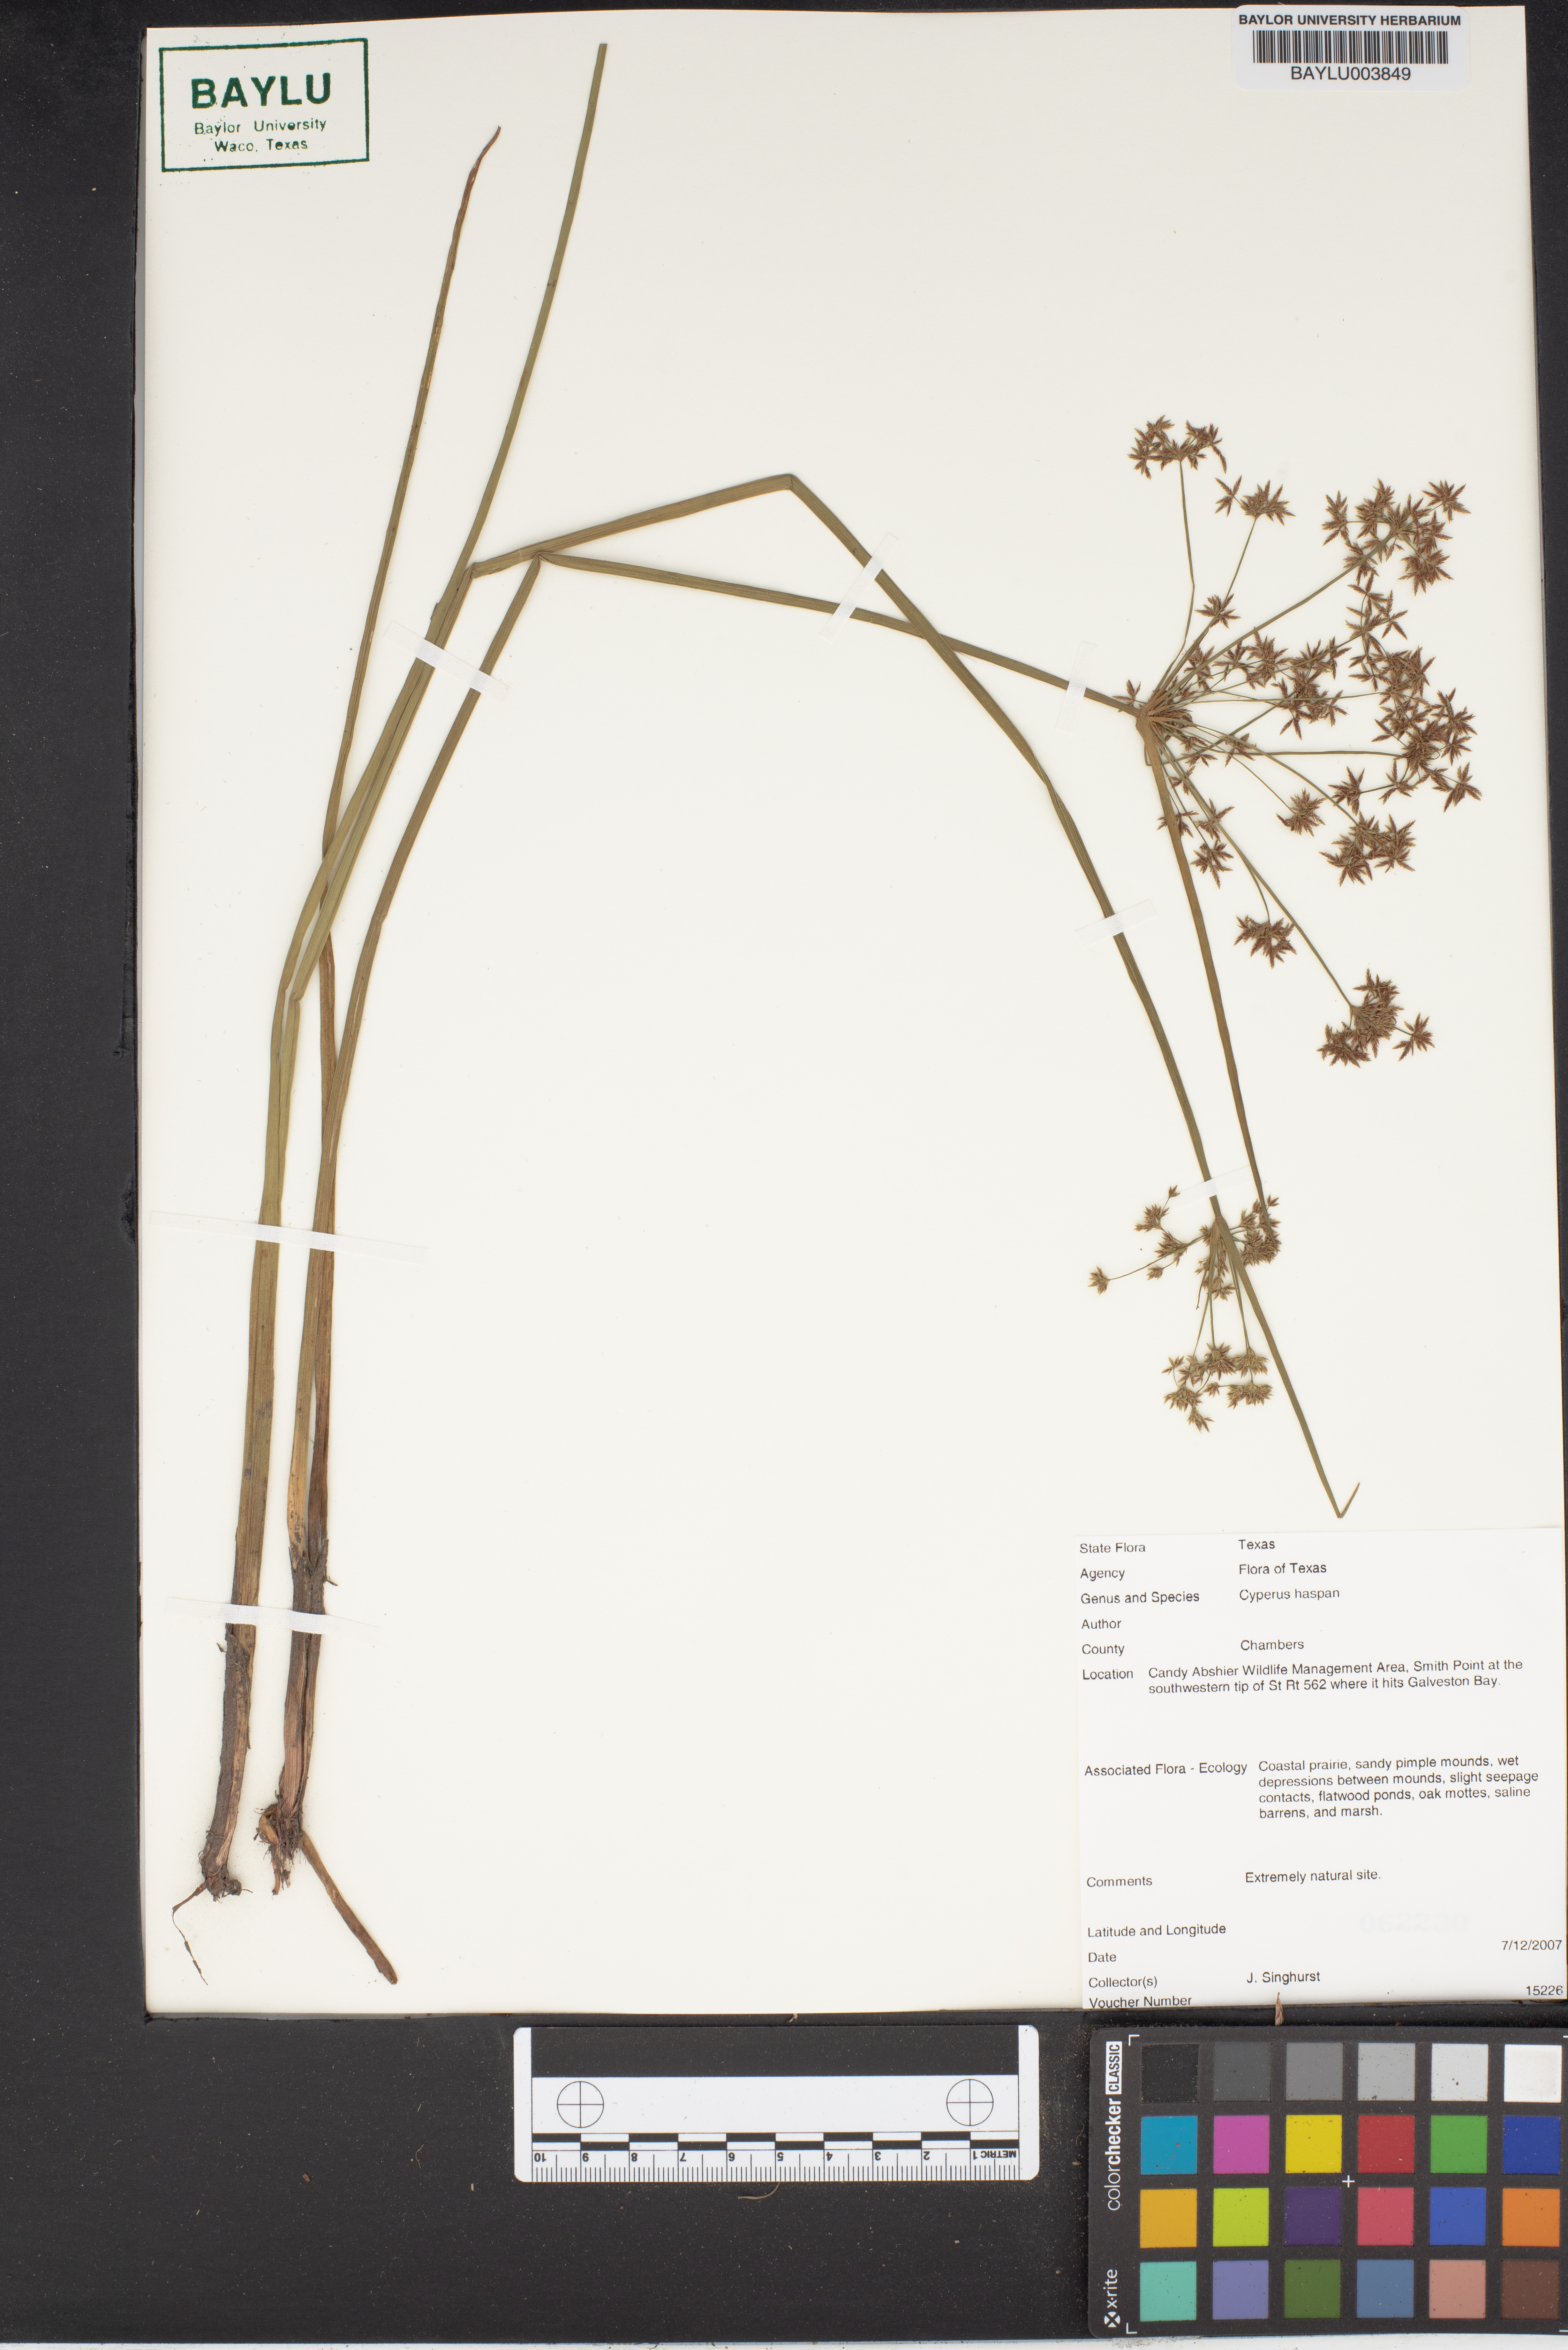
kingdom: Plantae
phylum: Tracheophyta
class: Liliopsida
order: Poales
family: Cyperaceae
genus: Cyperus
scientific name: Cyperus haspan
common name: Haspan flatsedge
